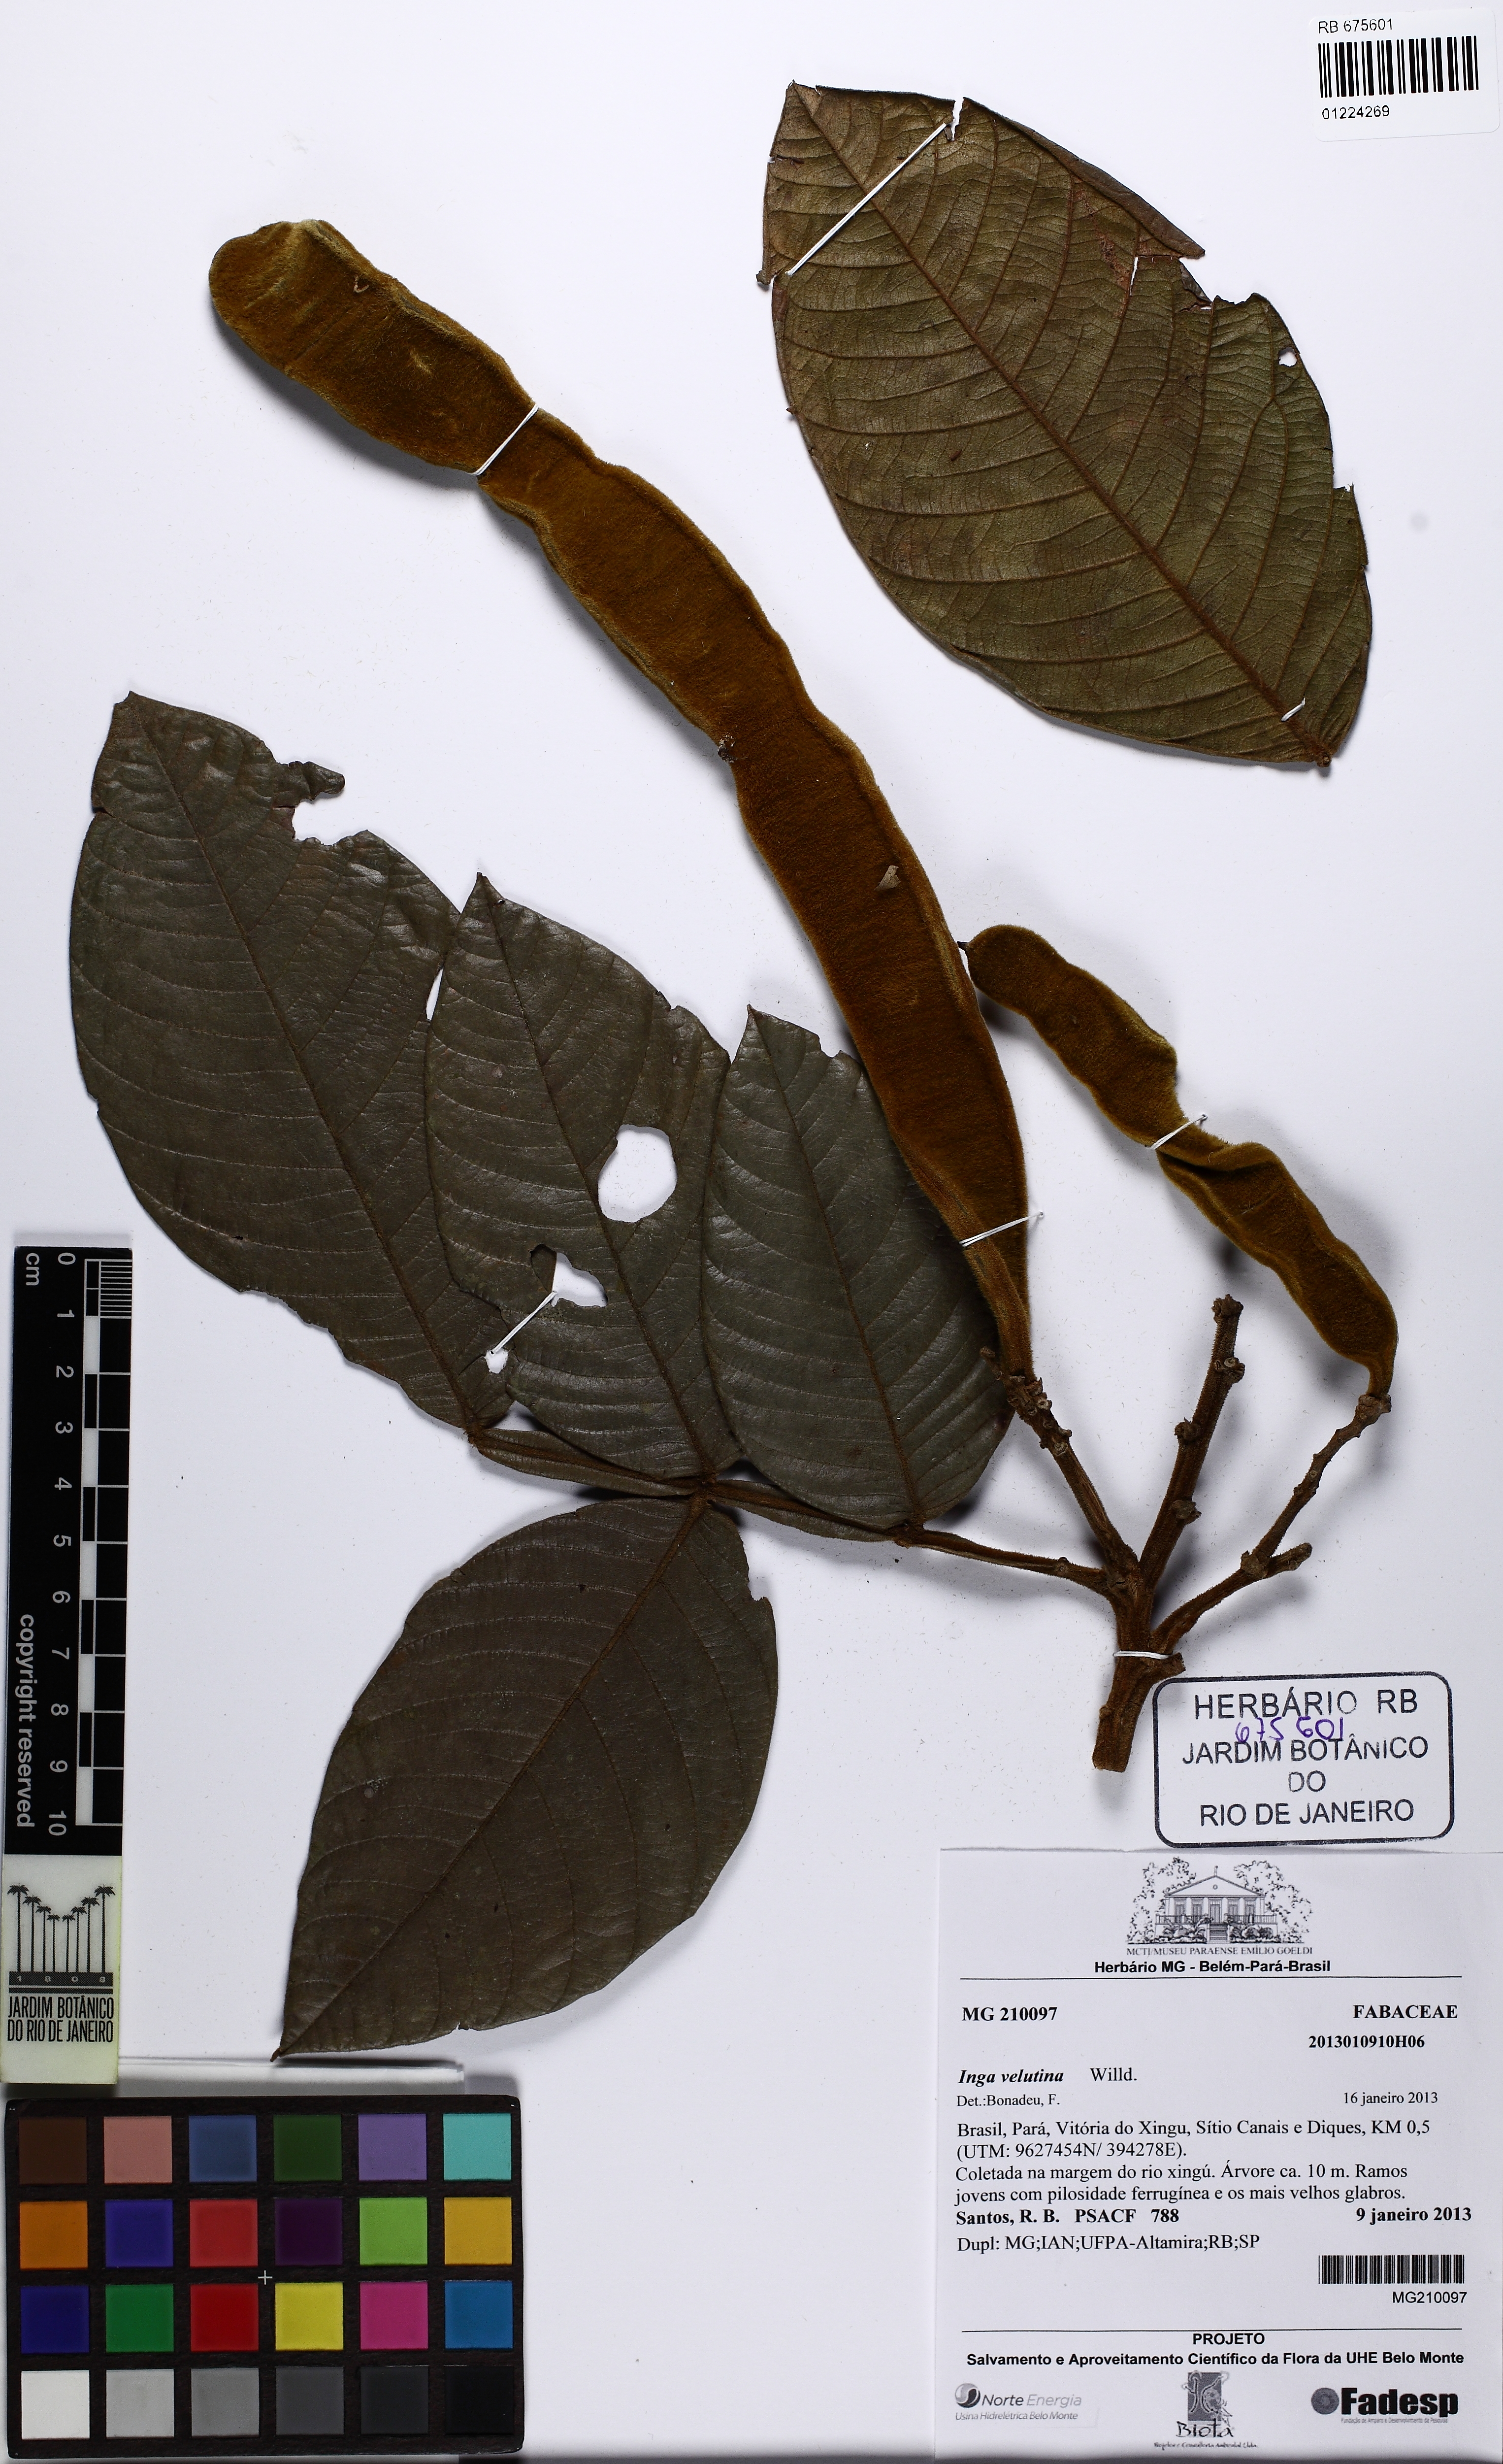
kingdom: Plantae
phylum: Tracheophyta
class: Magnoliopsida
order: Fabales
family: Fabaceae
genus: Inga
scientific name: Inga velutina
